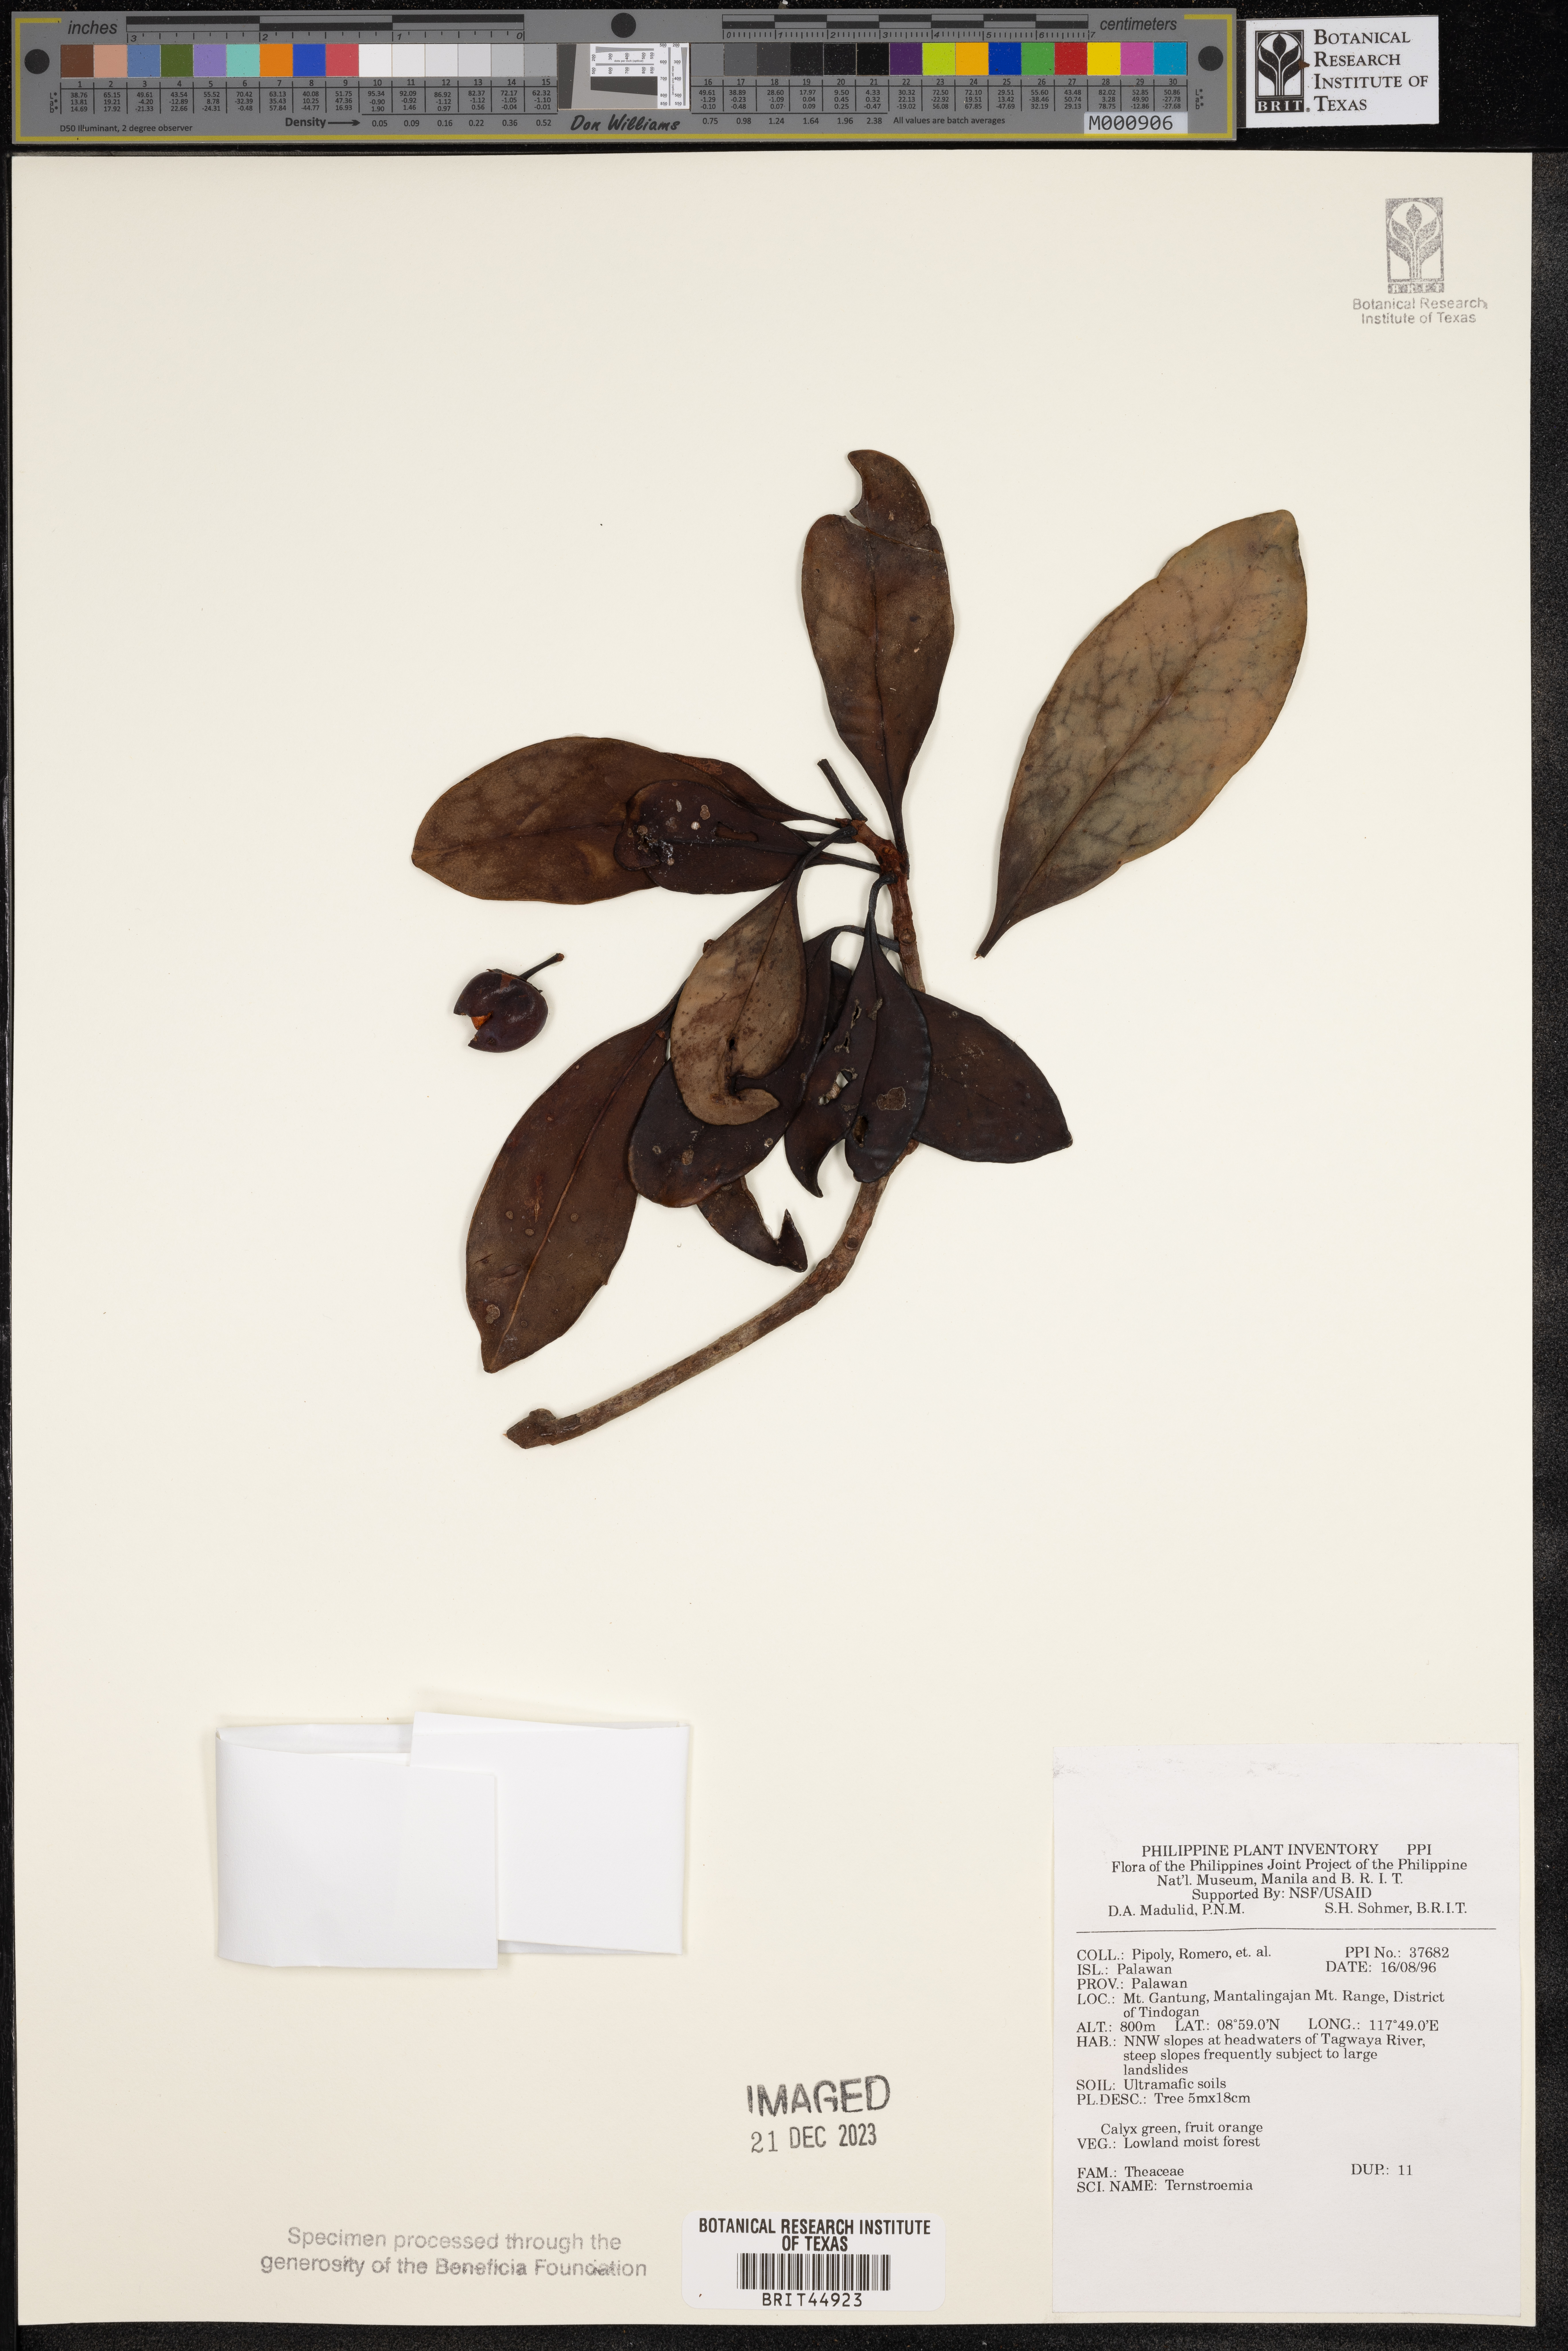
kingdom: Plantae
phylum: Tracheophyta
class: Magnoliopsida
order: Ericales
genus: Ternstroemia
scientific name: Ternstroemia
